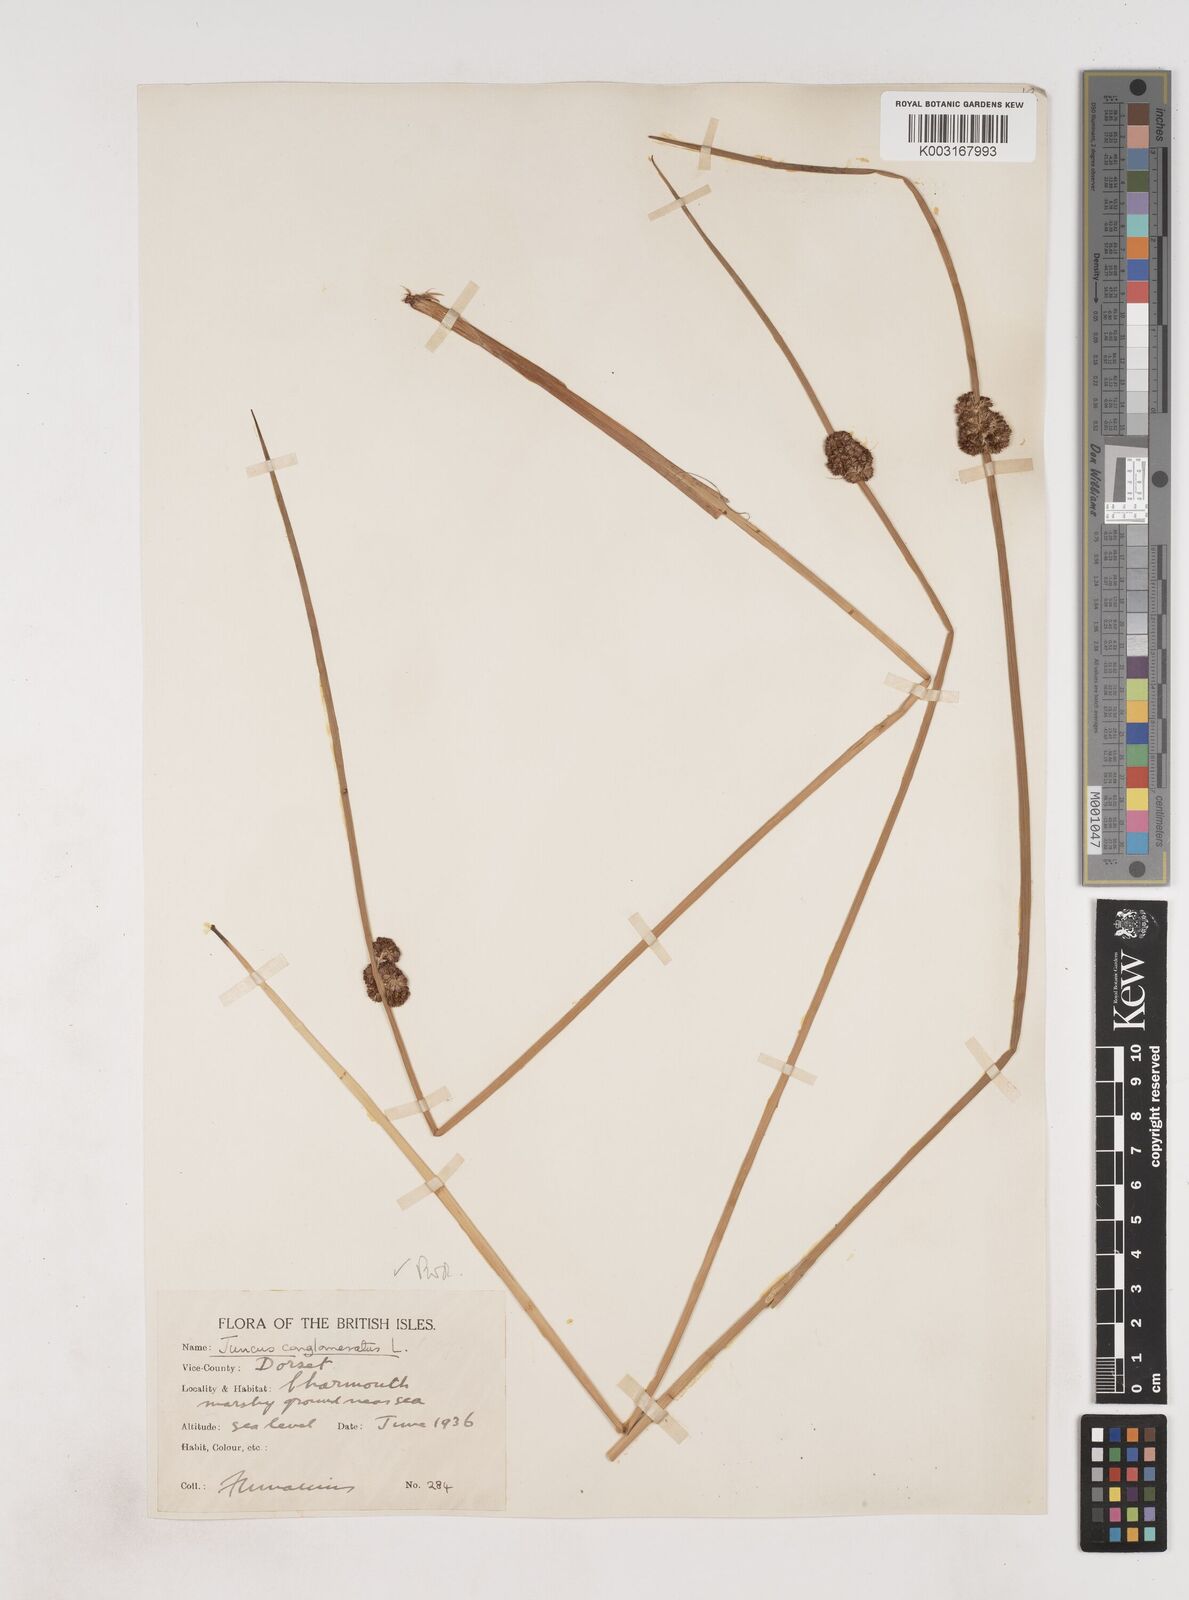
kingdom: Plantae
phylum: Tracheophyta
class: Liliopsida
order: Poales
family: Juncaceae
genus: Juncus
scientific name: Juncus conglomeratus
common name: Compact rush
